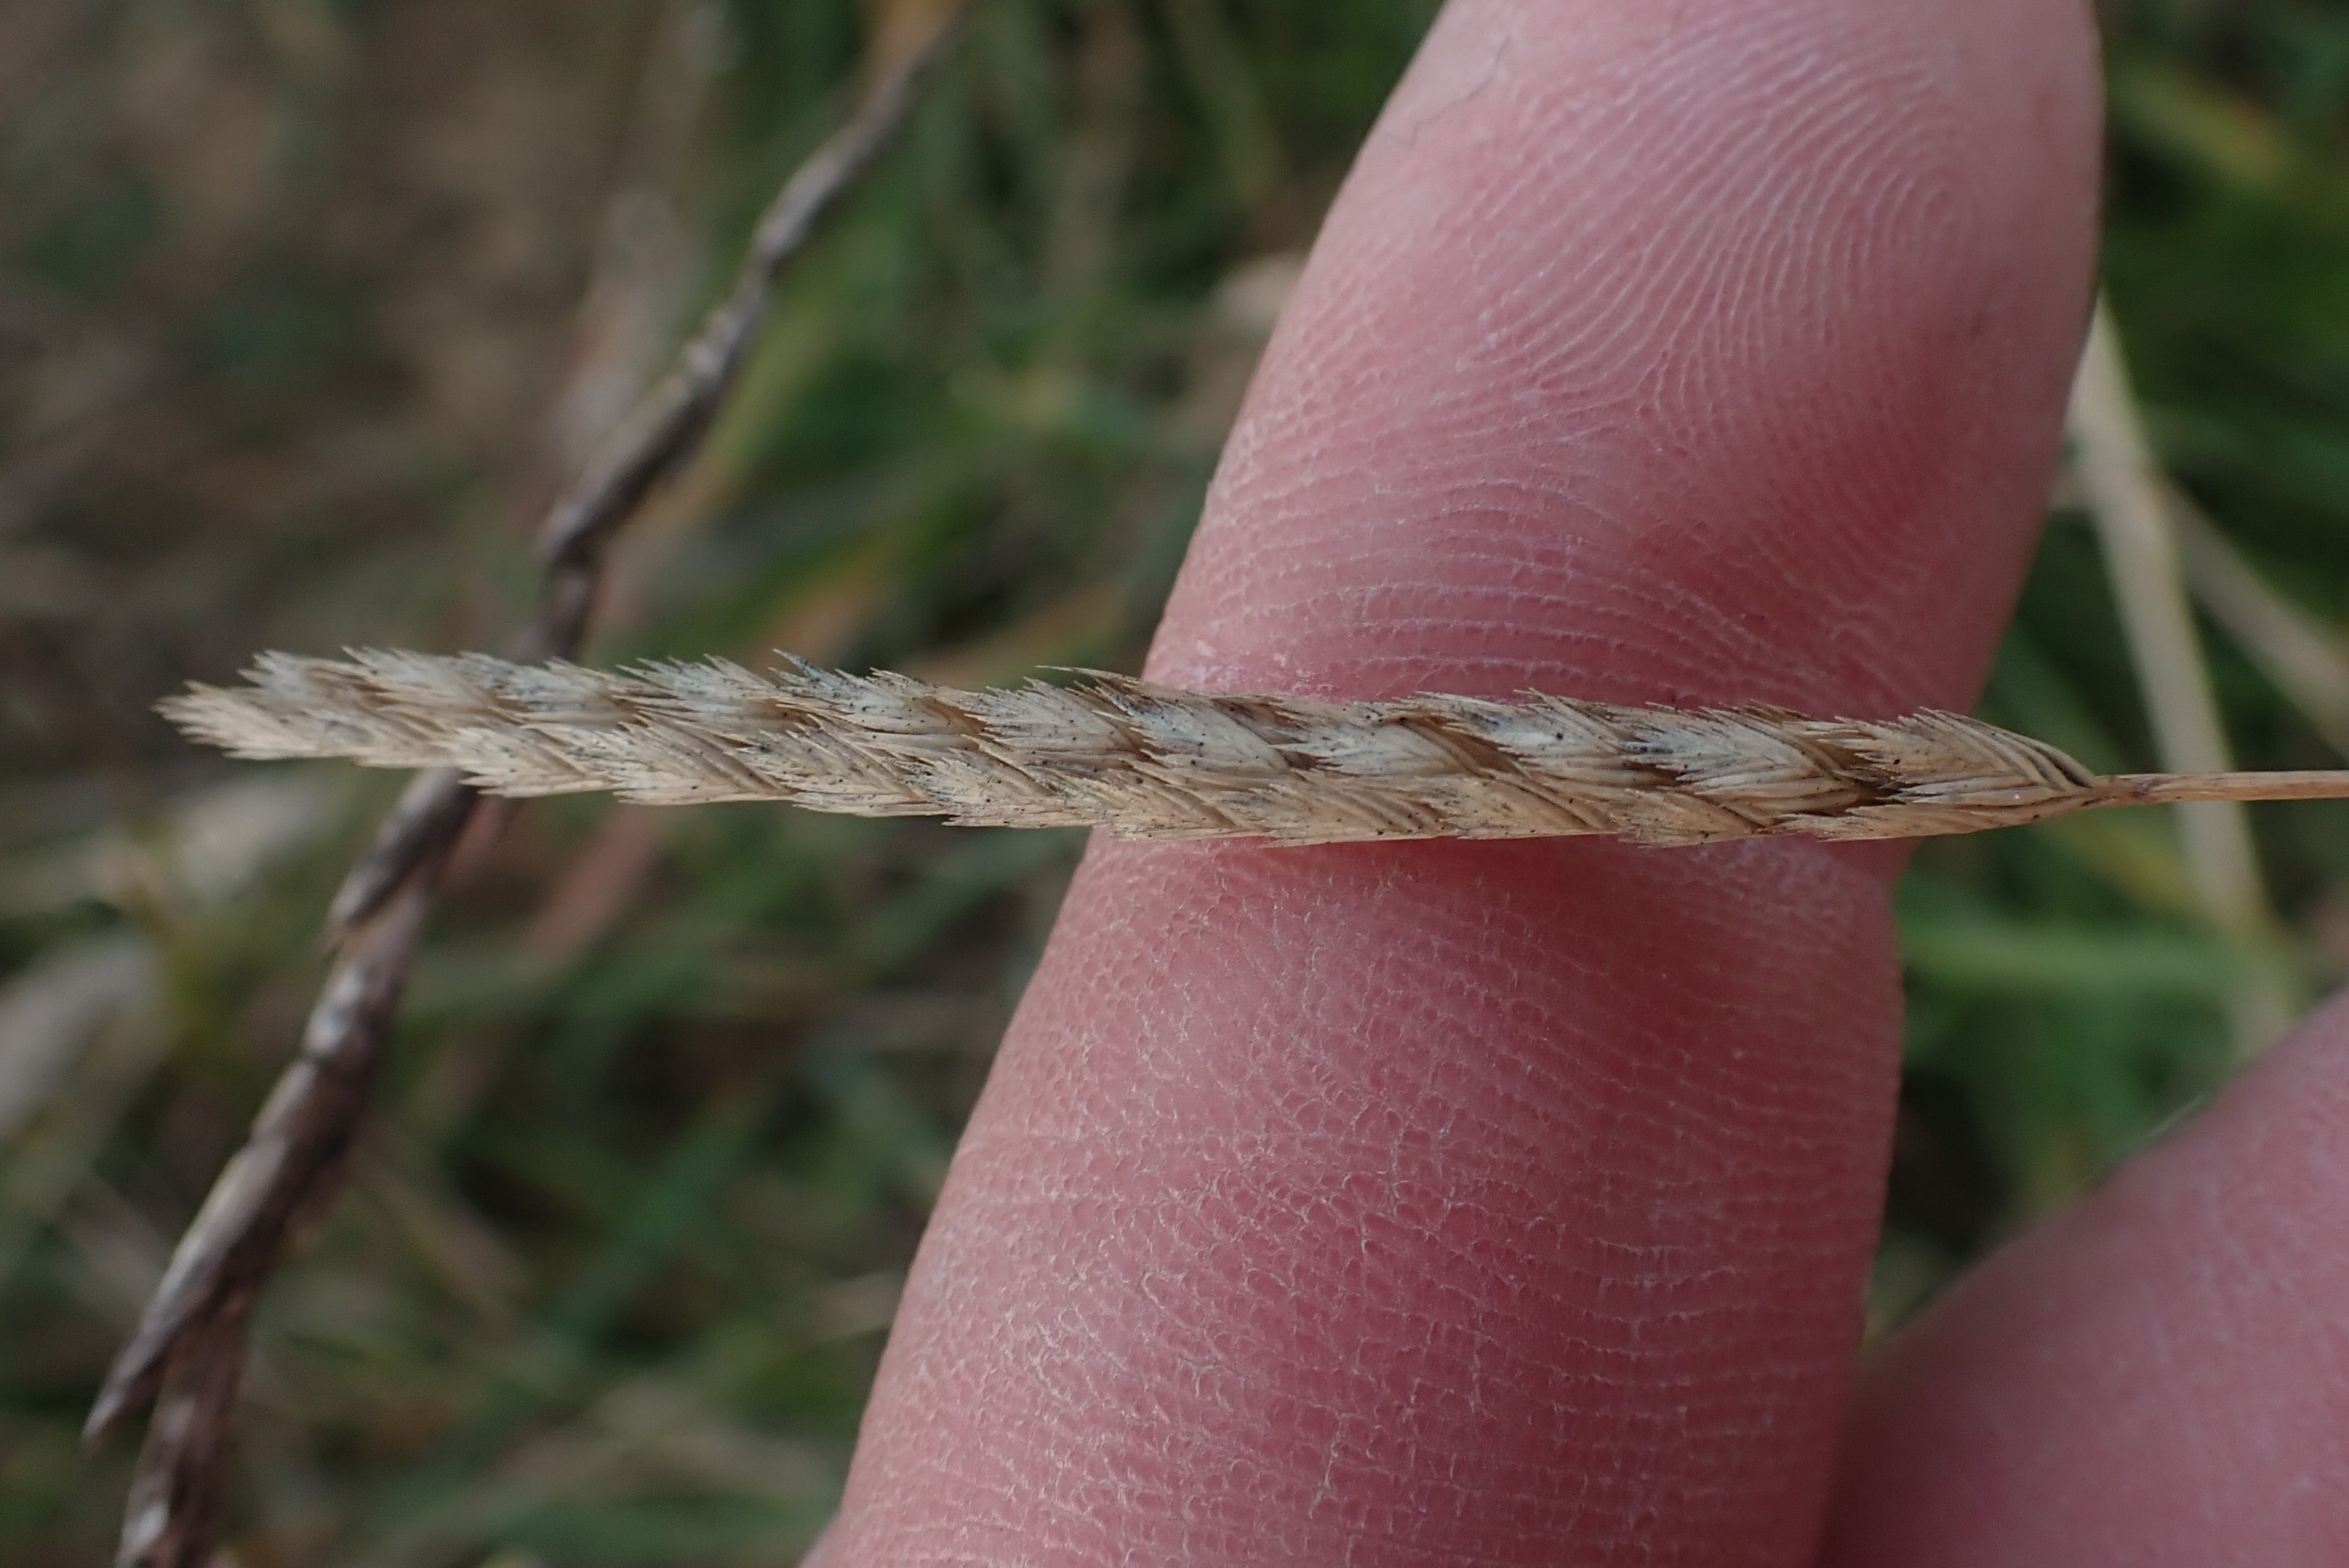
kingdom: Plantae
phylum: Tracheophyta
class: Liliopsida
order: Poales
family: Poaceae
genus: Cynosurus
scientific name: Cynosurus cristatus
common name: Kamgræs
